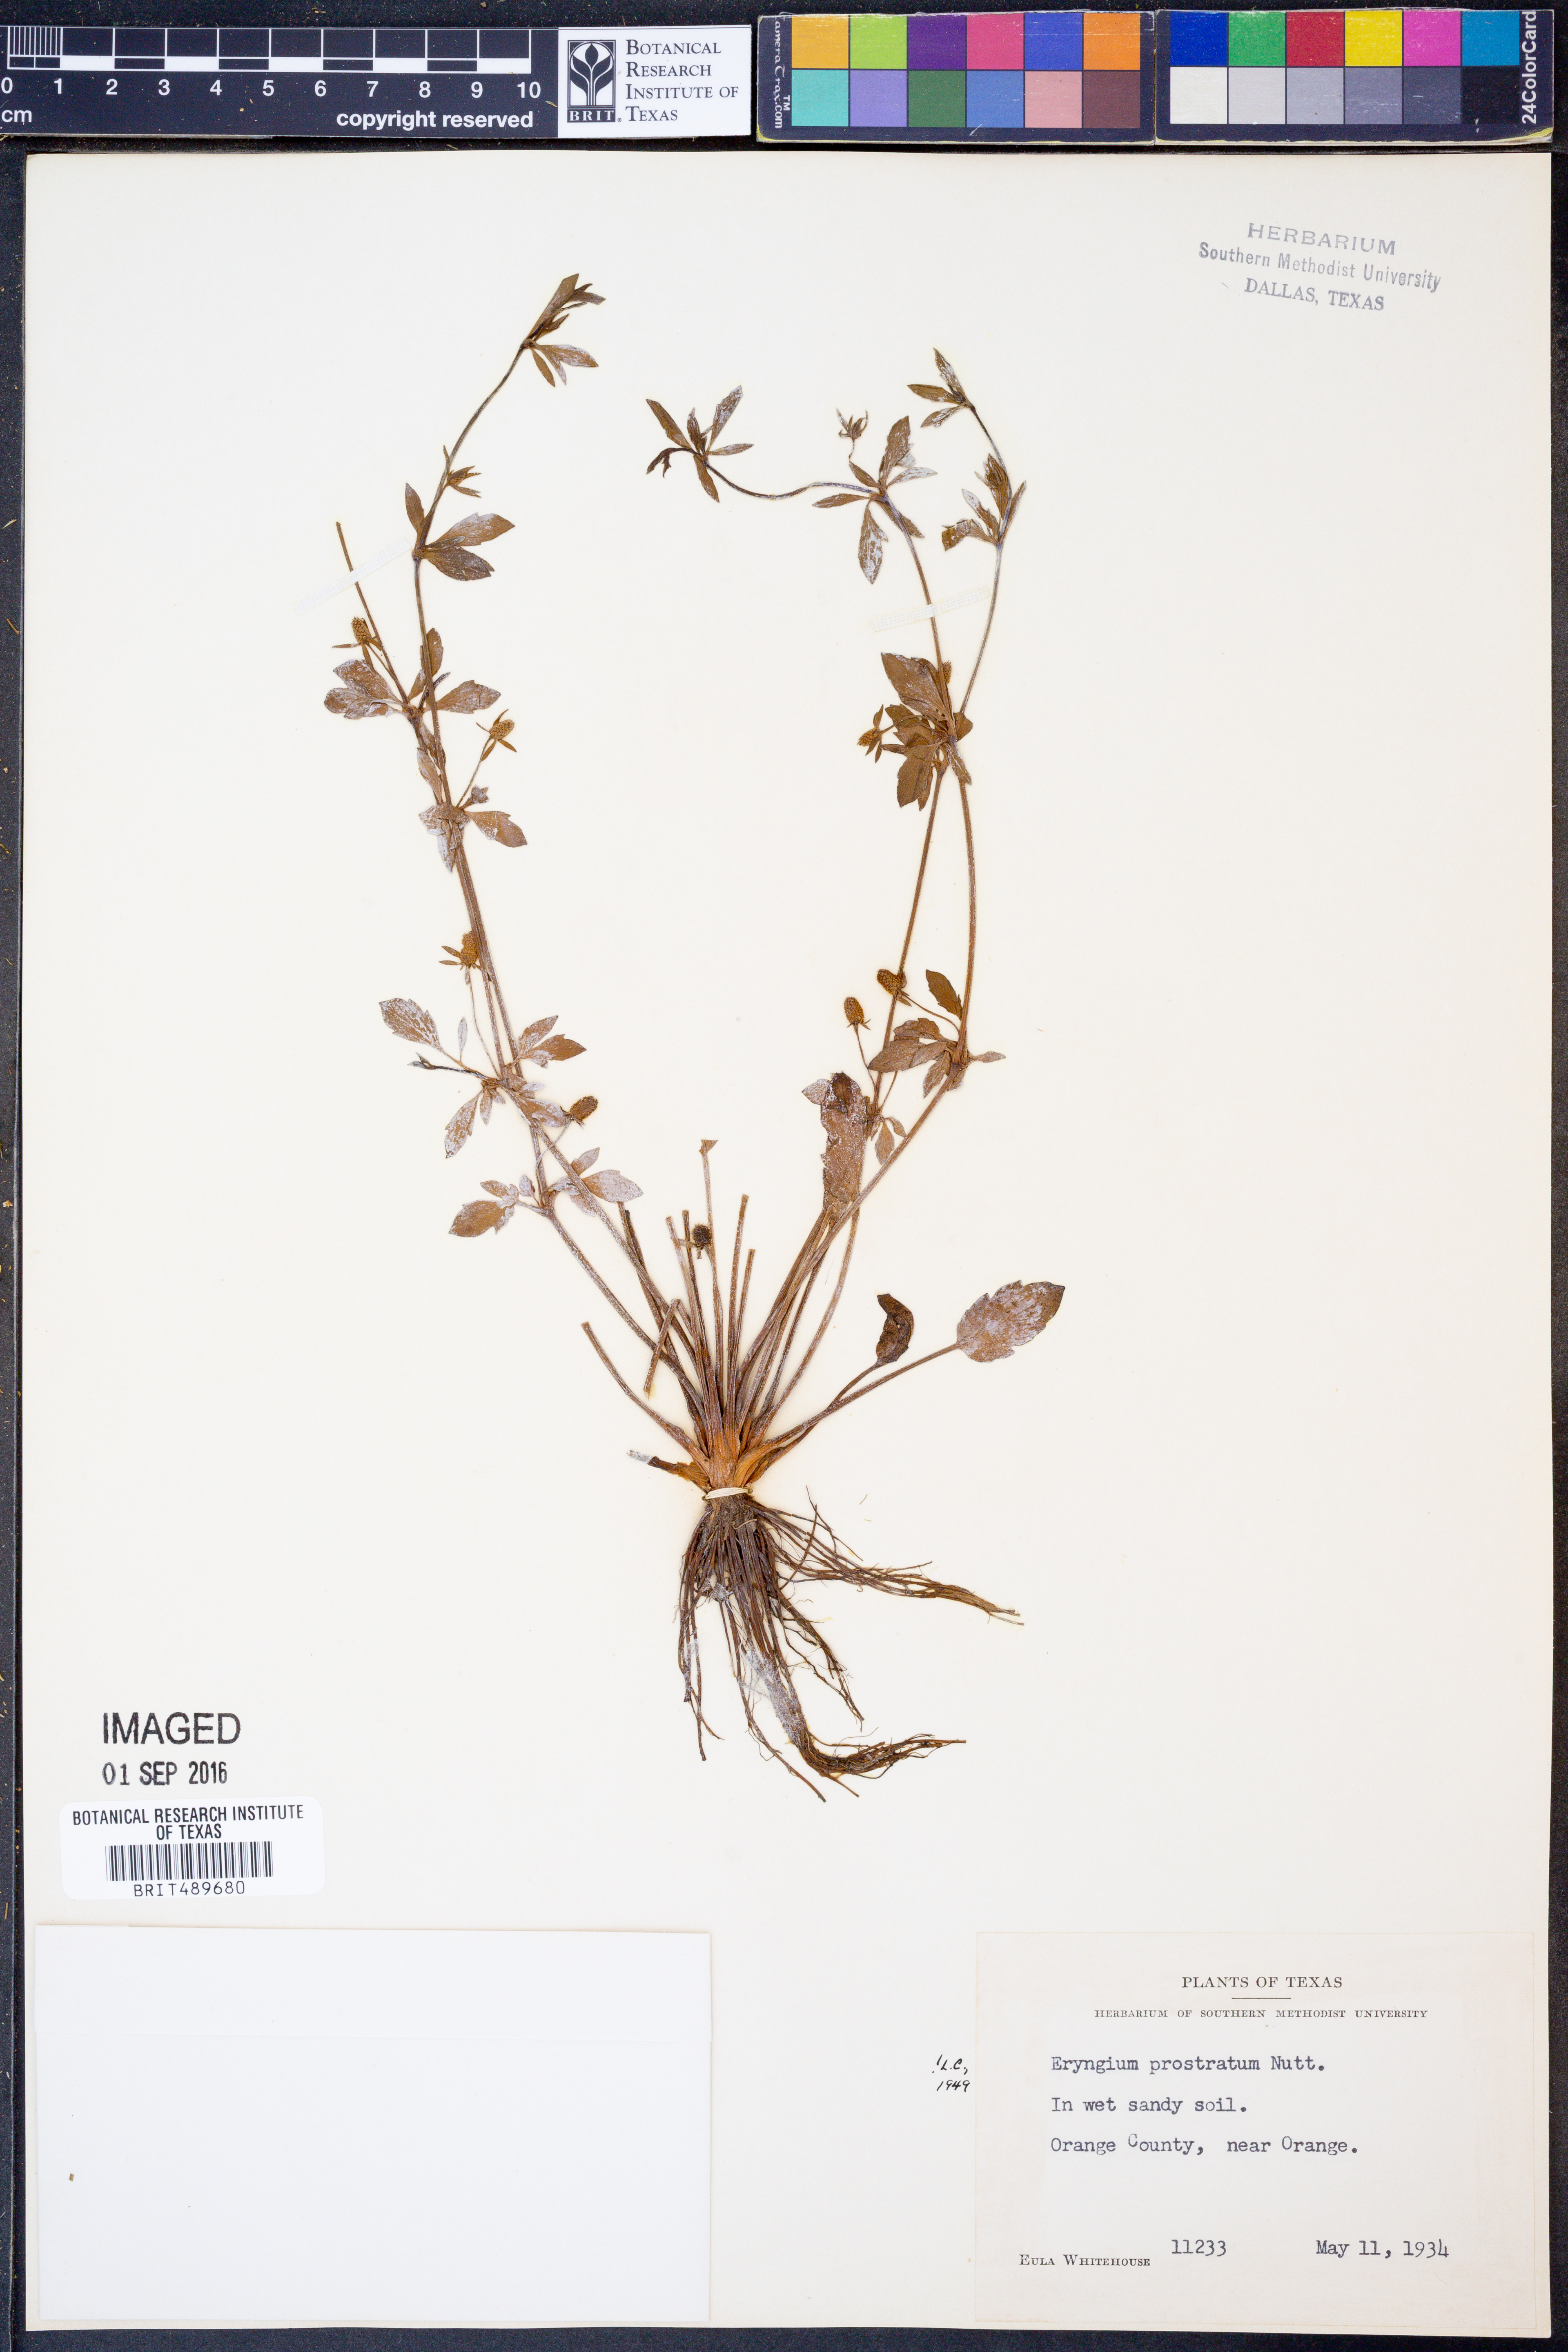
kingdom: Plantae
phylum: Tracheophyta
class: Magnoliopsida
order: Apiales
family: Apiaceae
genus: Eryngium
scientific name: Eryngium prostratum
